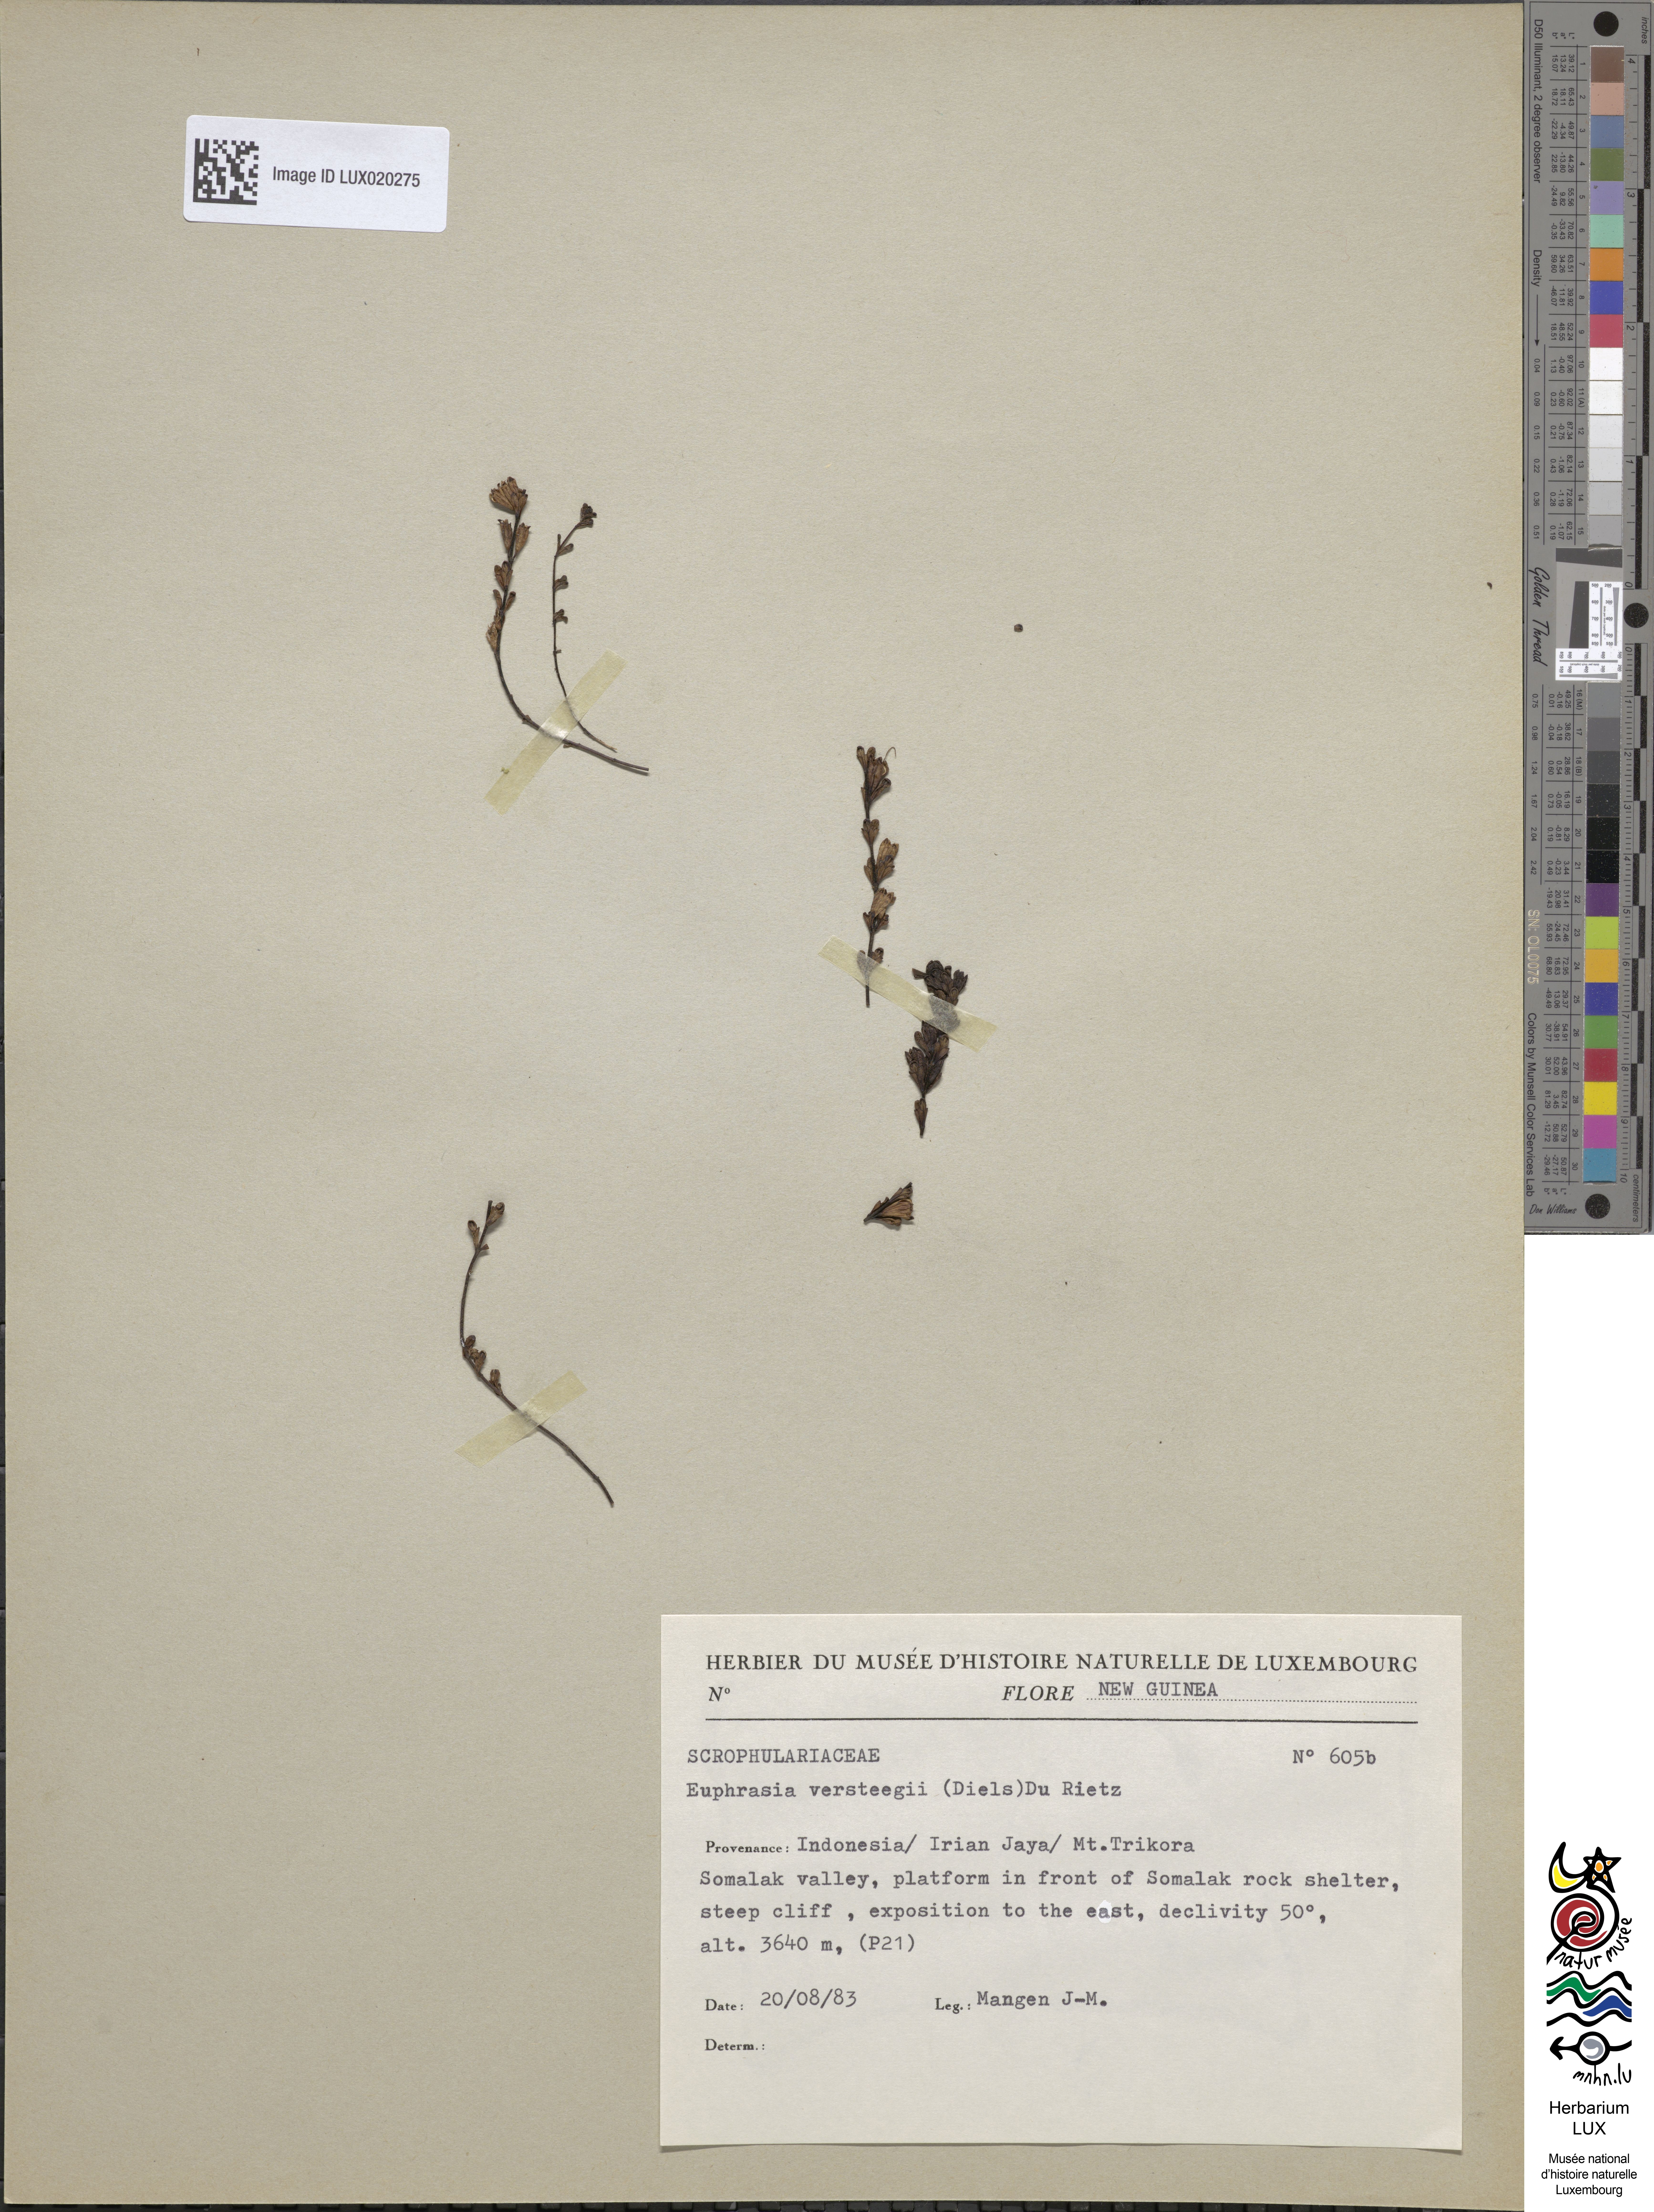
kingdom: Plantae
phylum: Tracheophyta
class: Magnoliopsida
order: Lamiales
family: Orobanchaceae
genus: Euphrasia
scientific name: Euphrasia versteegii
